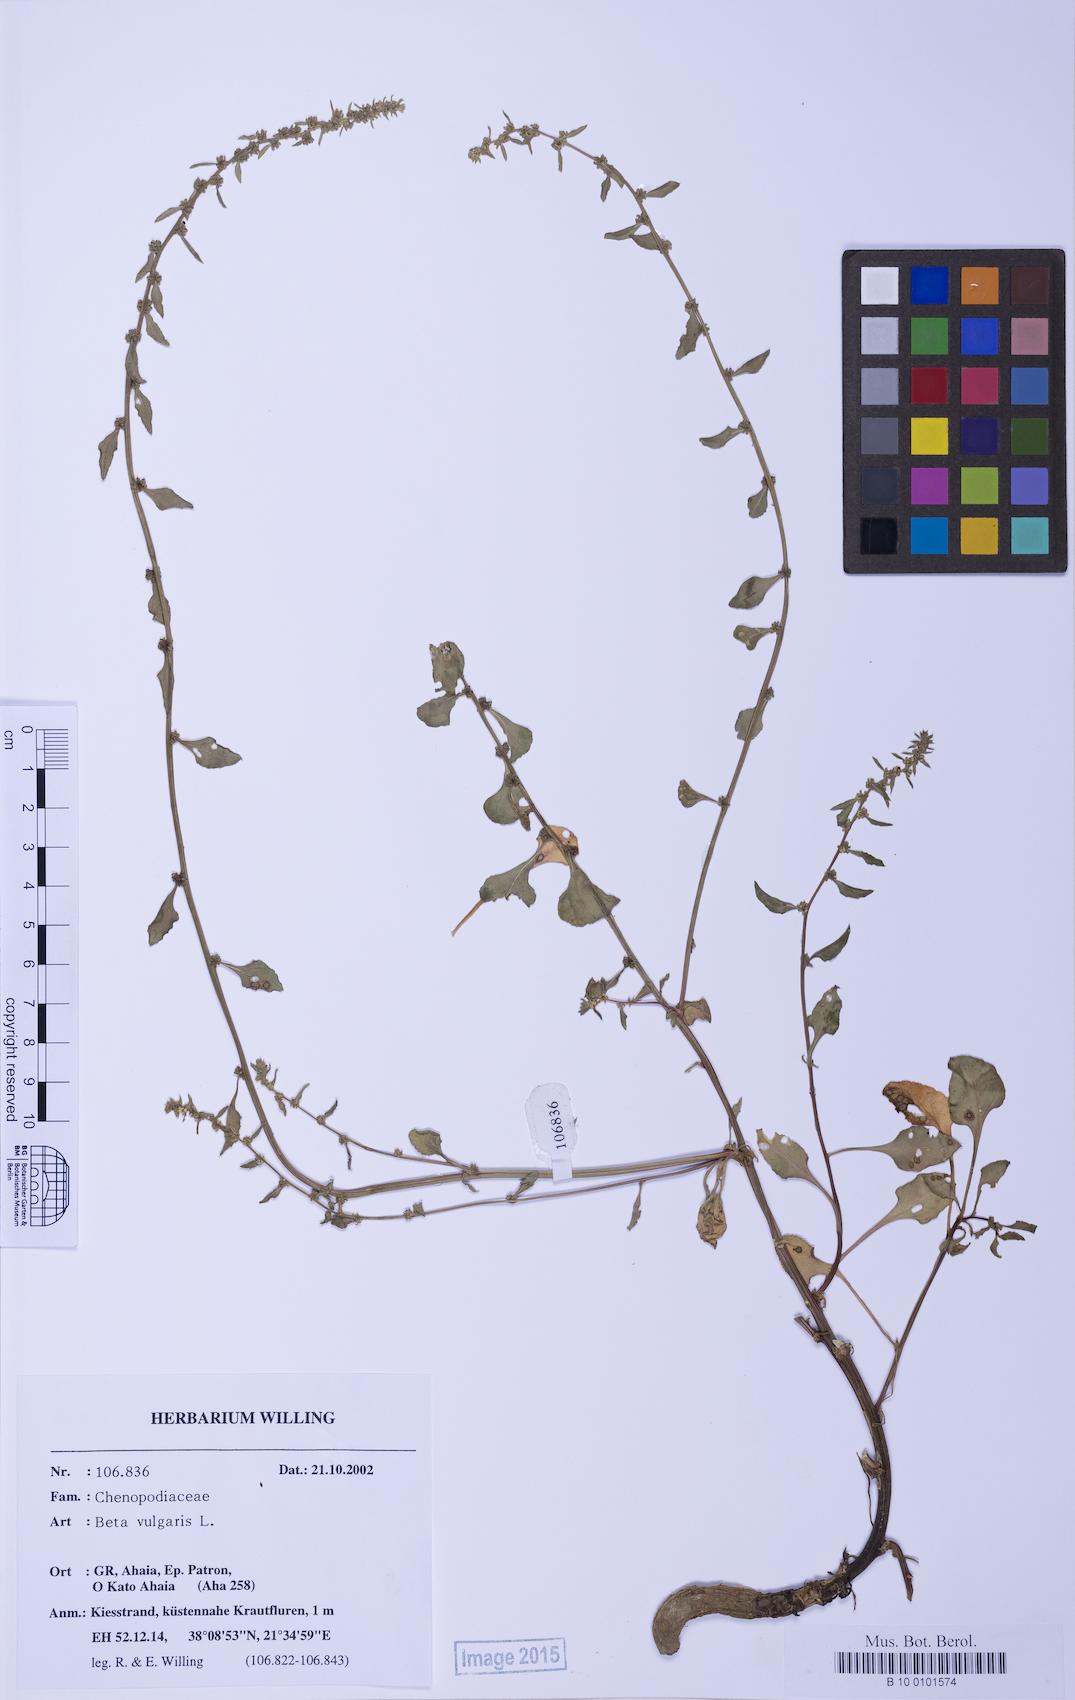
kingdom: Plantae
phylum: Tracheophyta
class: Magnoliopsida
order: Caryophyllales
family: Amaranthaceae
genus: Beta
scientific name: Beta macrocarpa
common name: Beet
